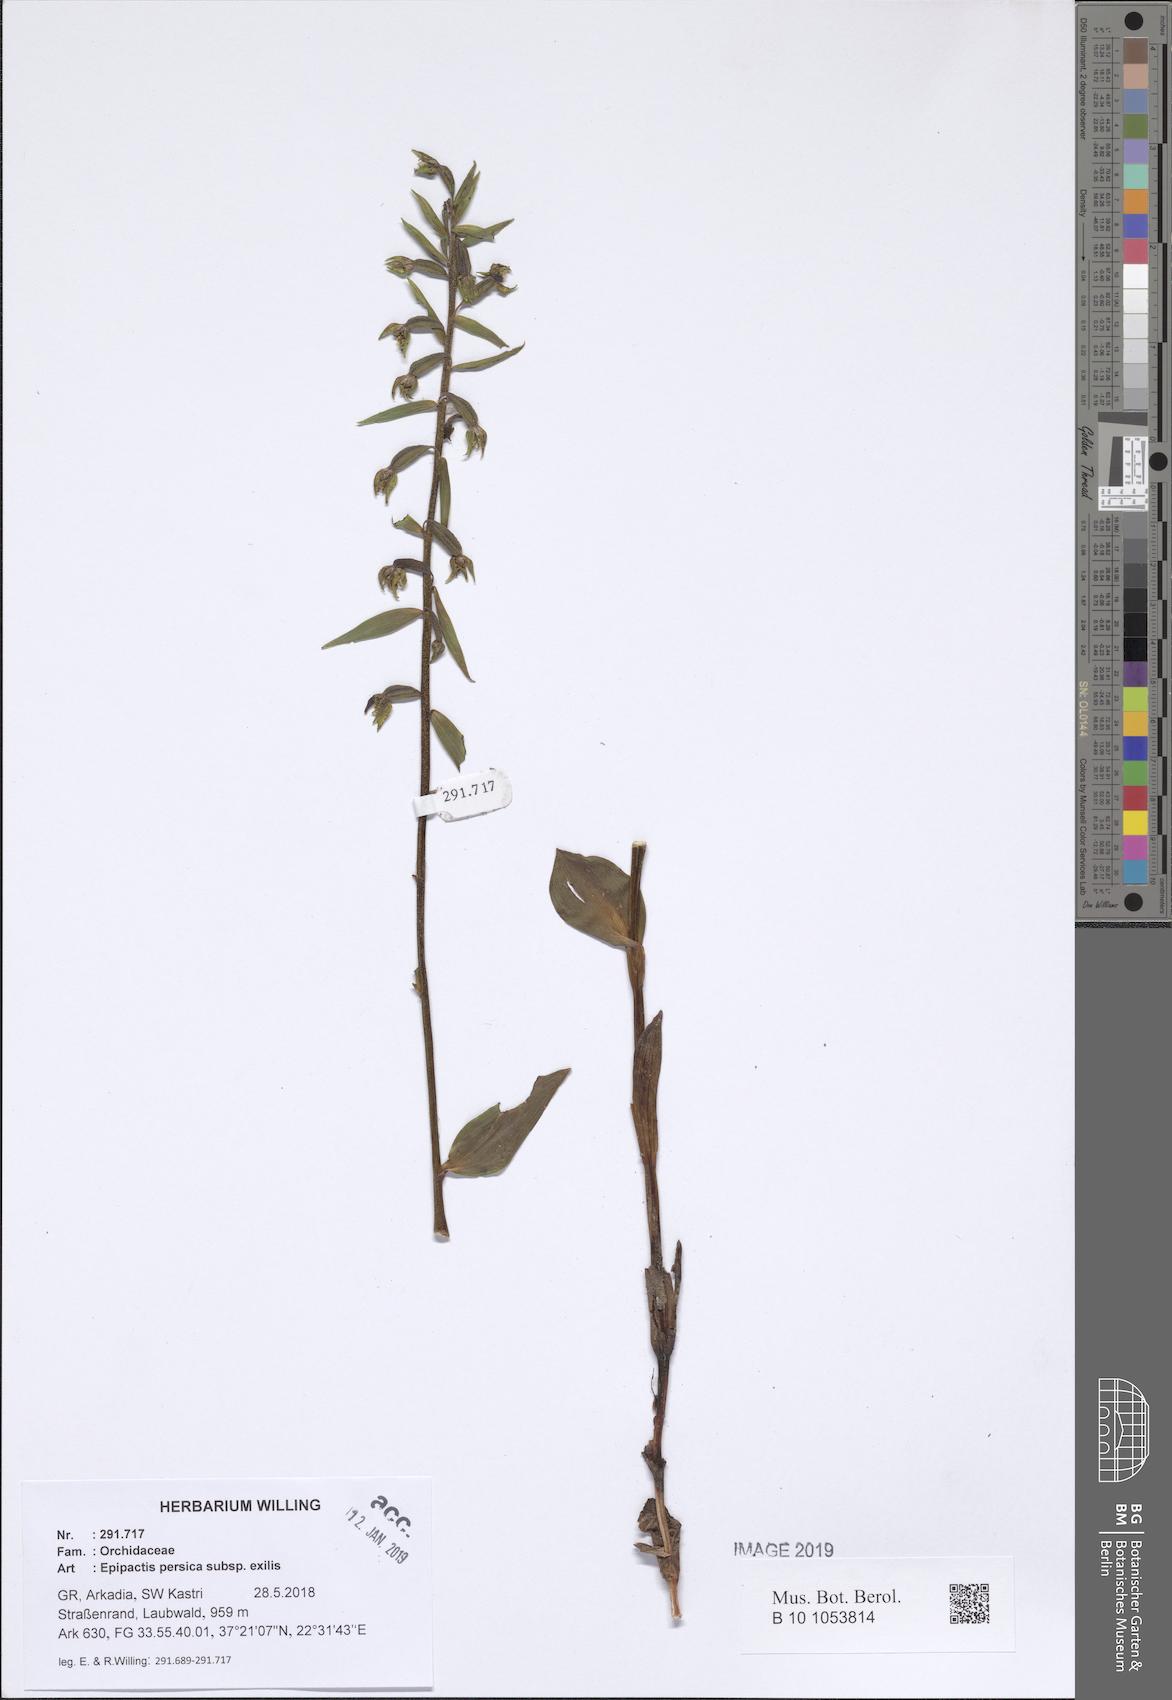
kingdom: Plantae
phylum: Tracheophyta
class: Liliopsida
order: Asparagales
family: Orchidaceae
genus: Epipactis
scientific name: Epipactis persica
